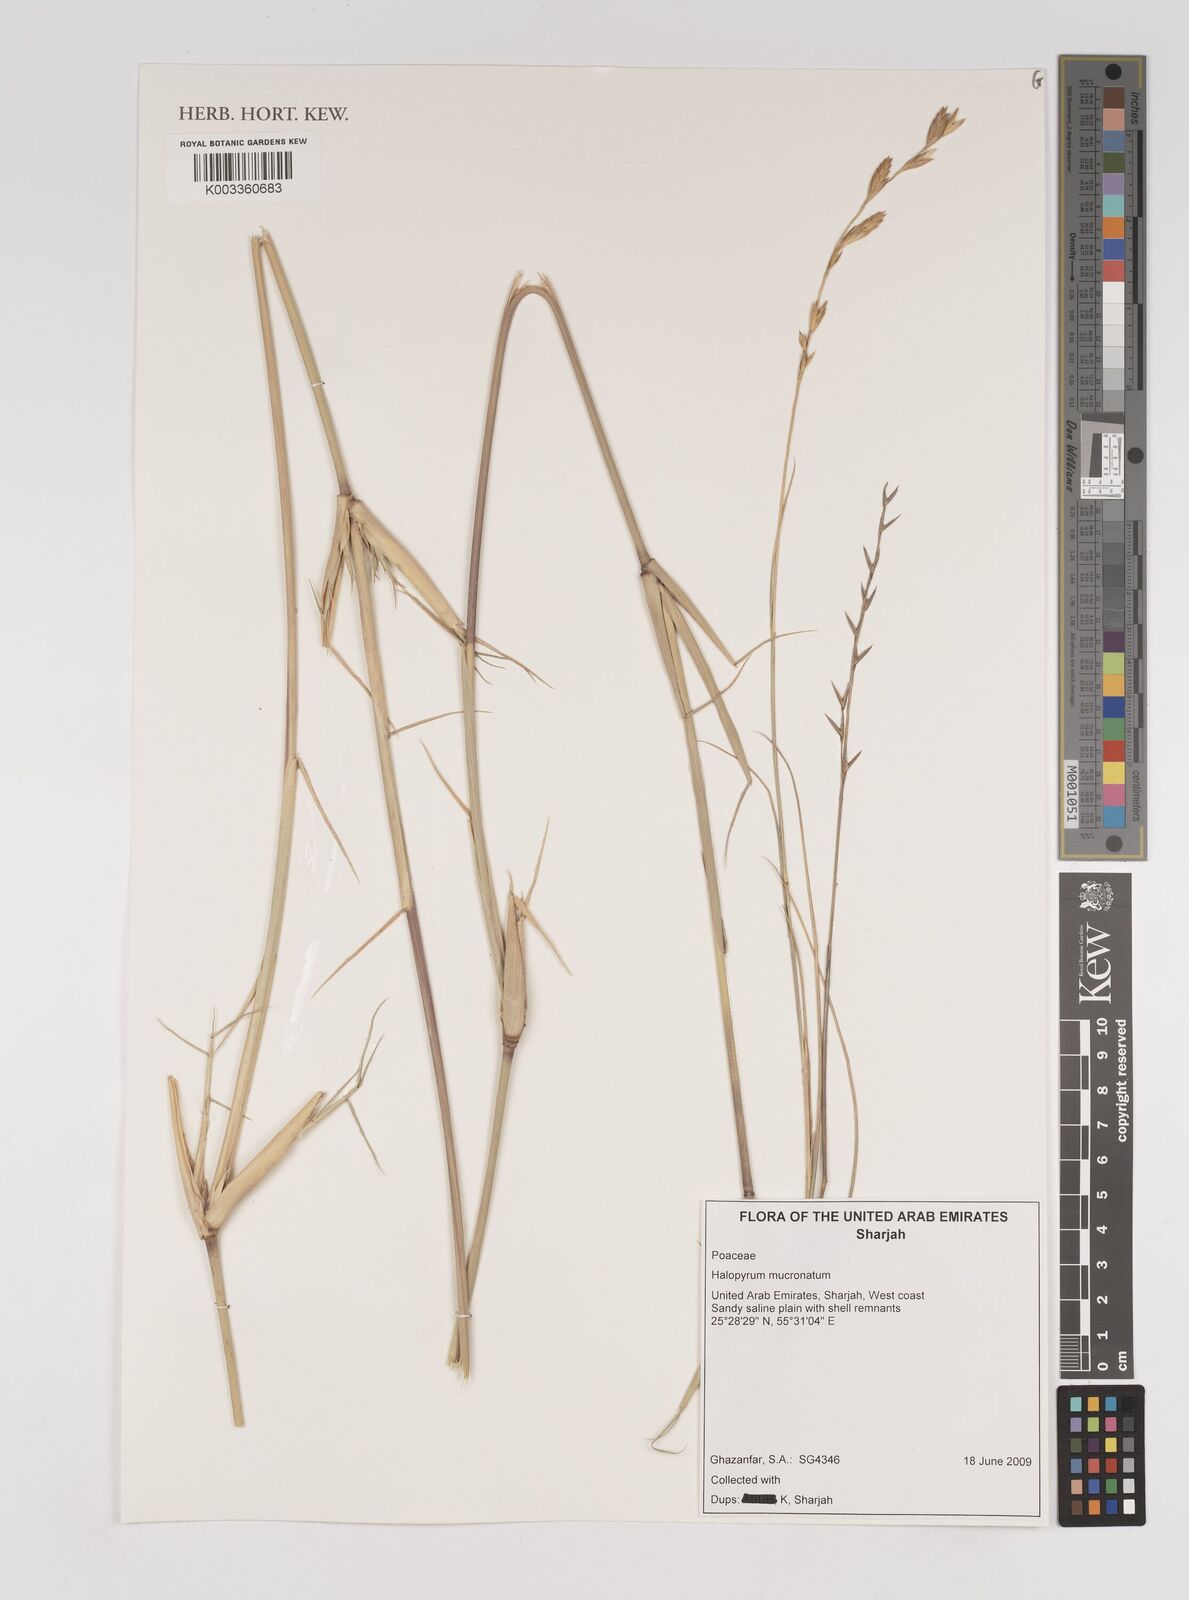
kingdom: Plantae
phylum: Tracheophyta
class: Liliopsida
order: Poales
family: Poaceae
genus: Halopyrum
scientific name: Halopyrum mucronatum
